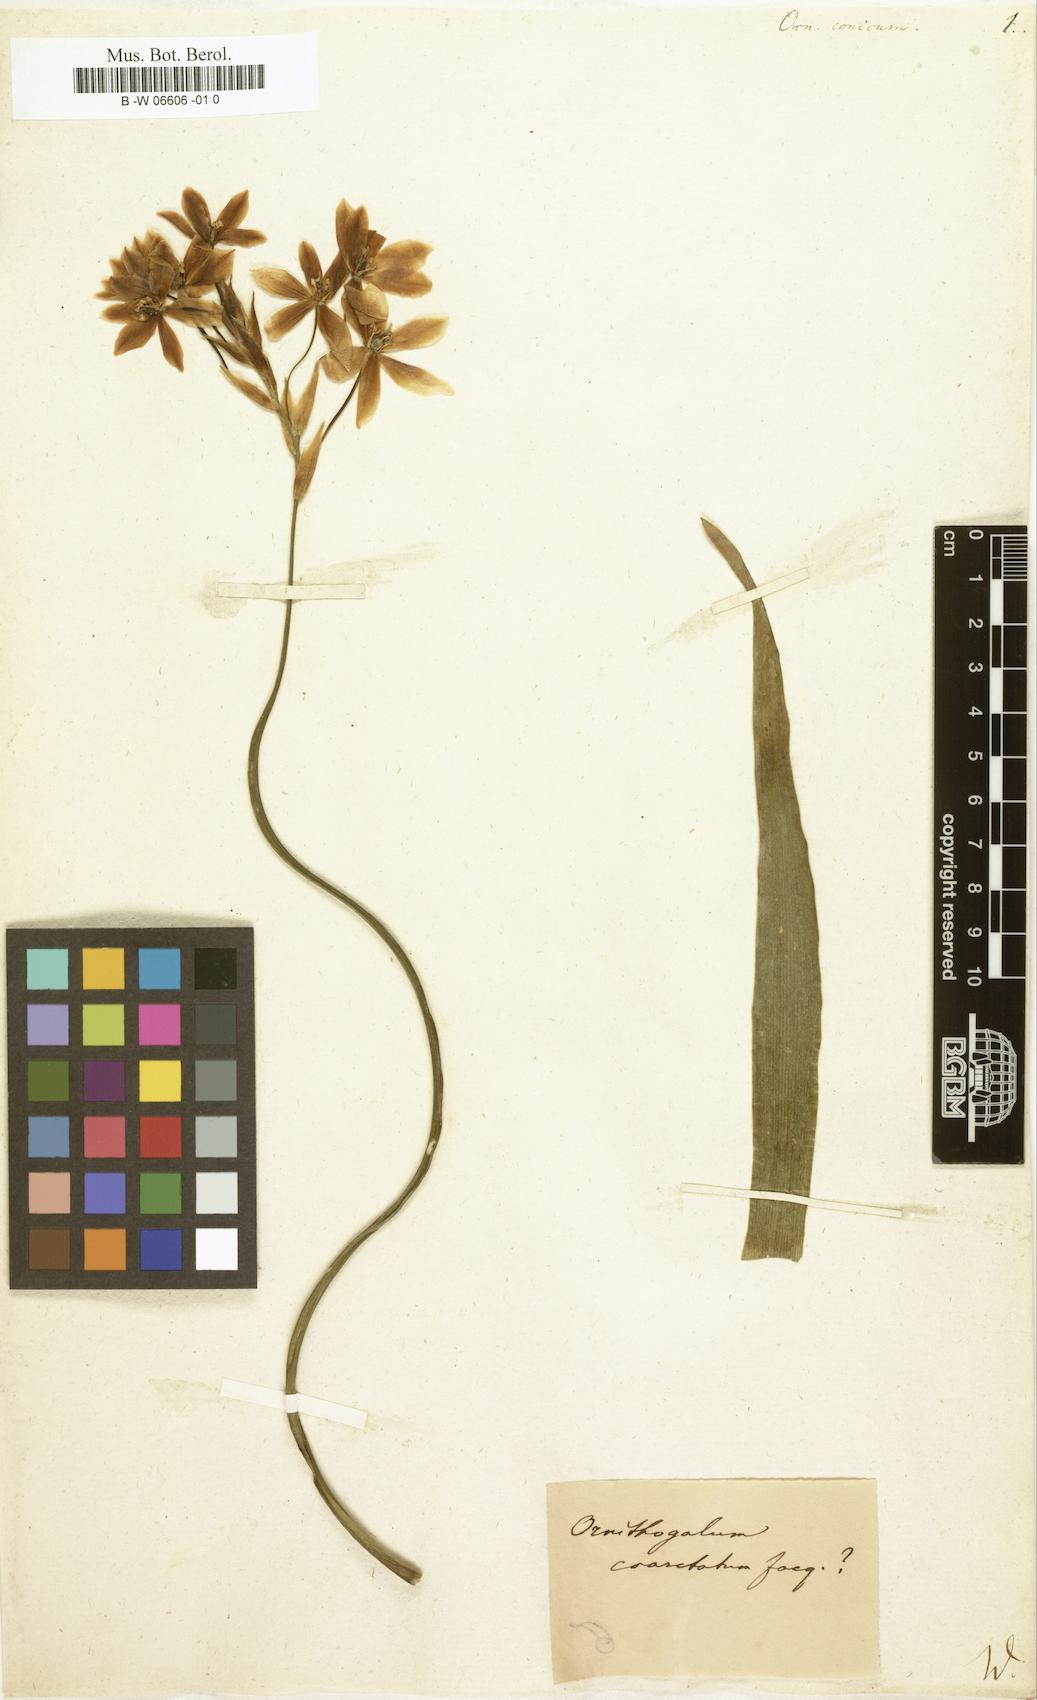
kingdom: Plantae
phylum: Tracheophyta
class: Liliopsida
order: Liliales
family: Liliaceae
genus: Ornithogalum
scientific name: Ornithogalum
